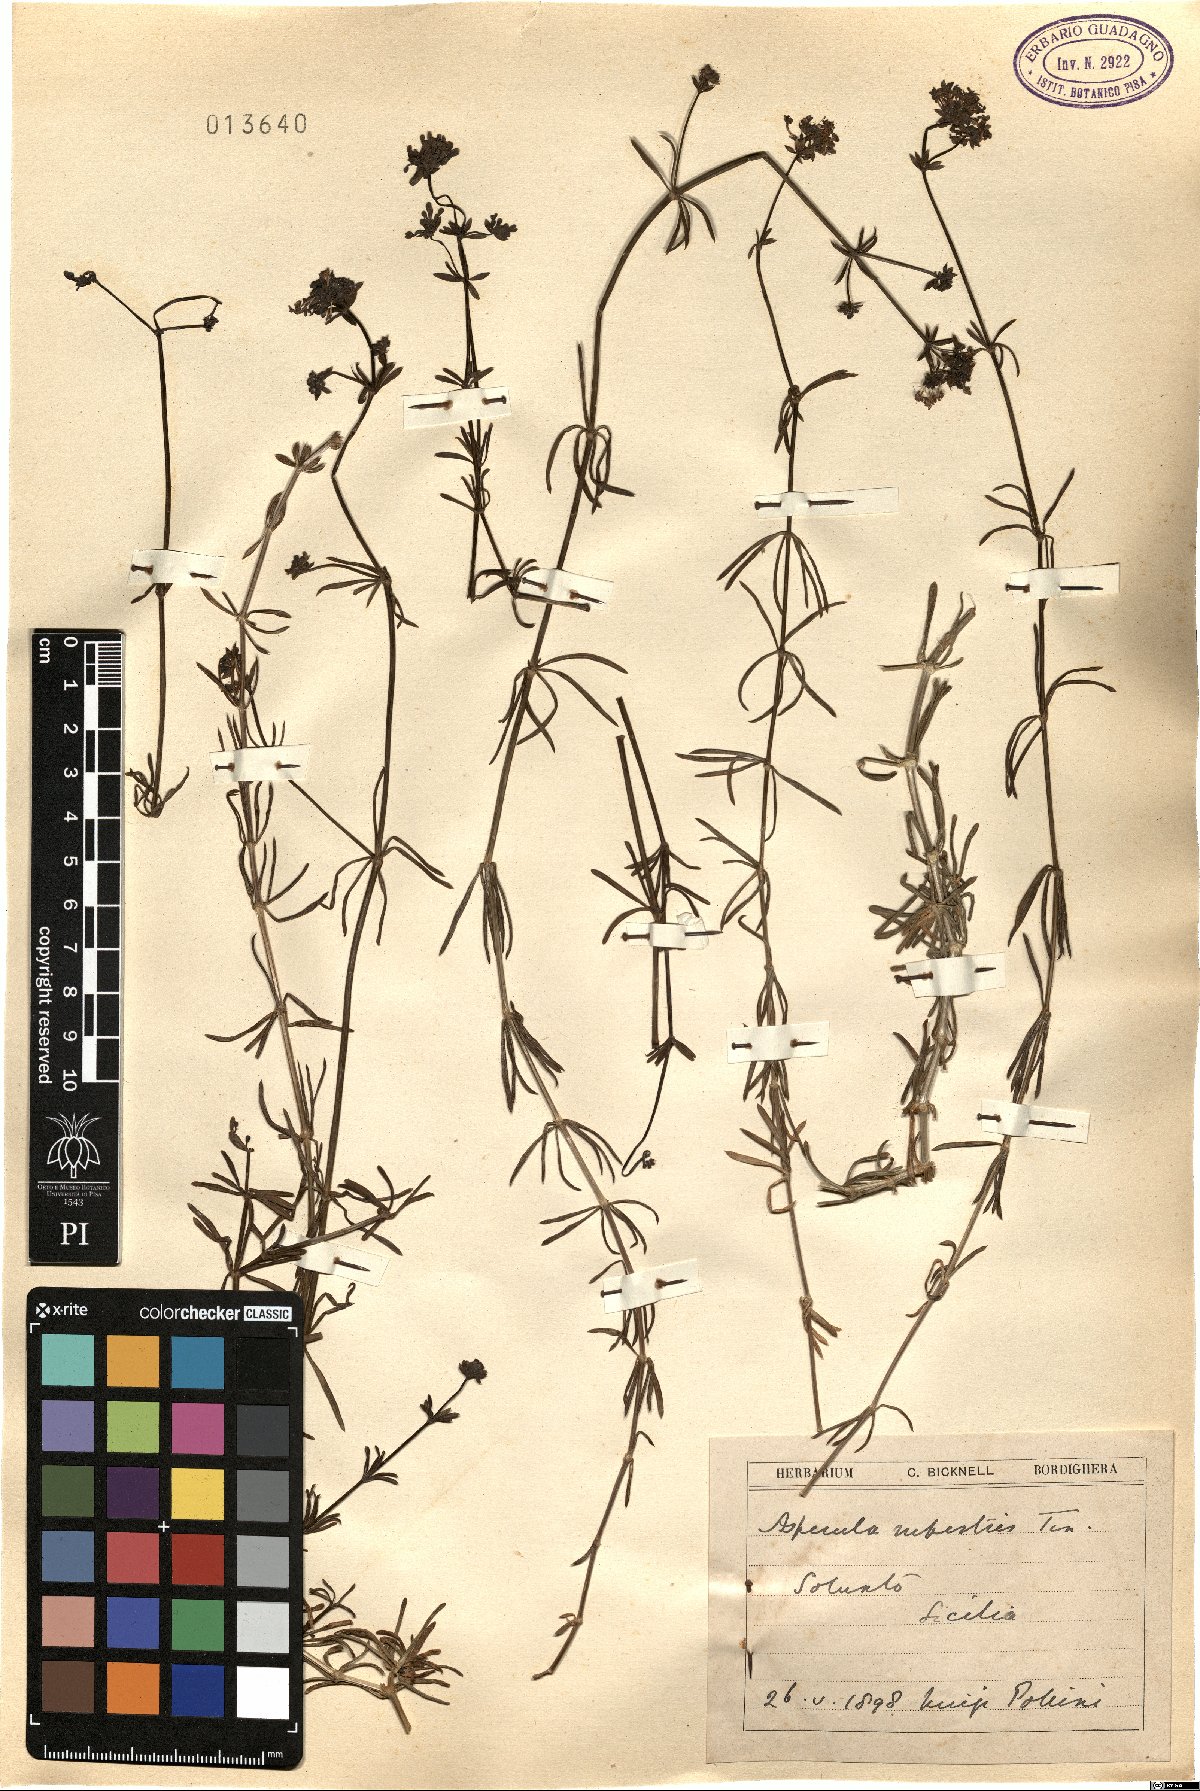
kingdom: Plantae
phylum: Tracheophyta
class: Magnoliopsida
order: Gentianales
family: Rubiaceae
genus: Hexaphylla
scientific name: Hexaphylla rupestris
